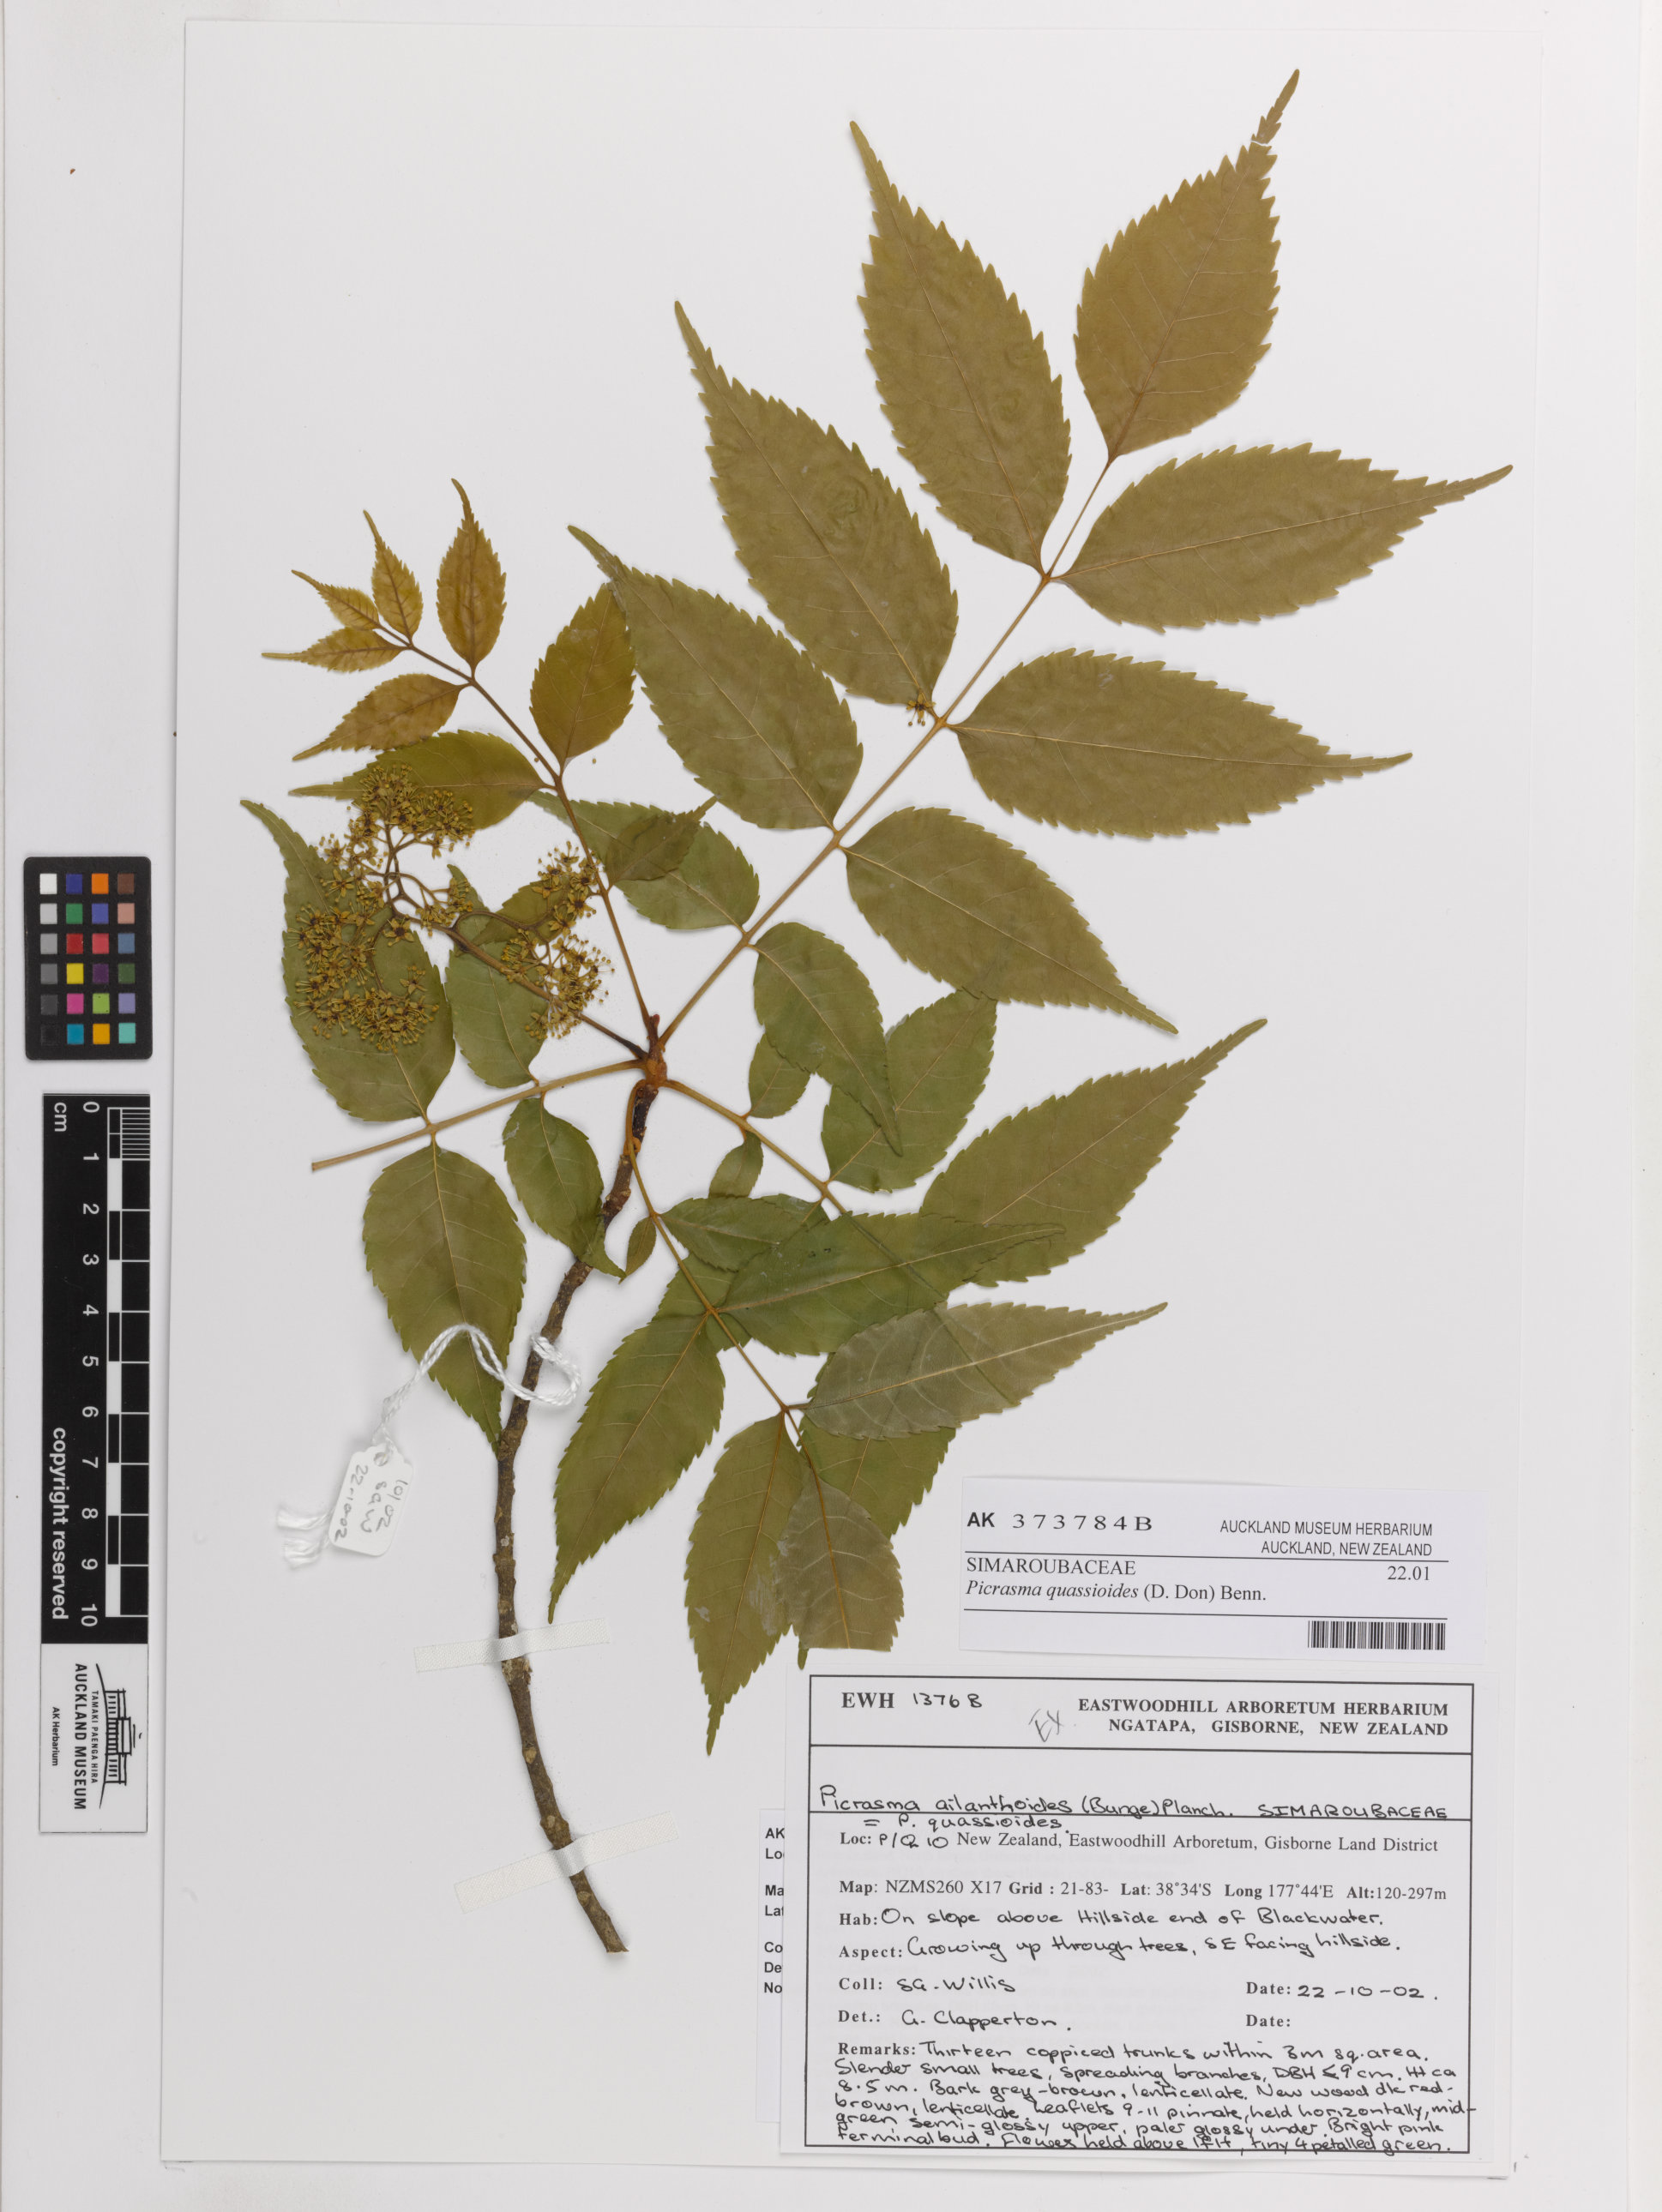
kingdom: Plantae
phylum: Tracheophyta
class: Magnoliopsida
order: Sapindales
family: Simaroubaceae
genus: Picrasma
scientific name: Picrasma quassioides
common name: Shurni
